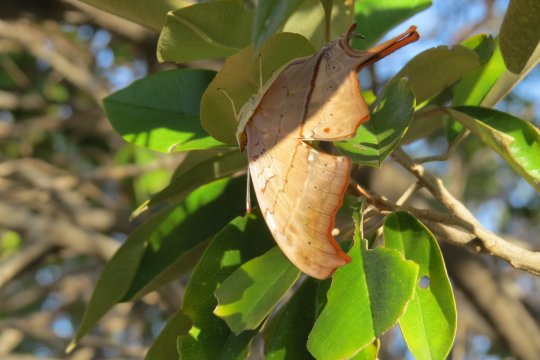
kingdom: Animalia
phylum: Arthropoda
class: Insecta
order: Lepidoptera
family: Nymphalidae
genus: Marpesia
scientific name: Marpesia petreus
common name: Ruddy Daggerwing
